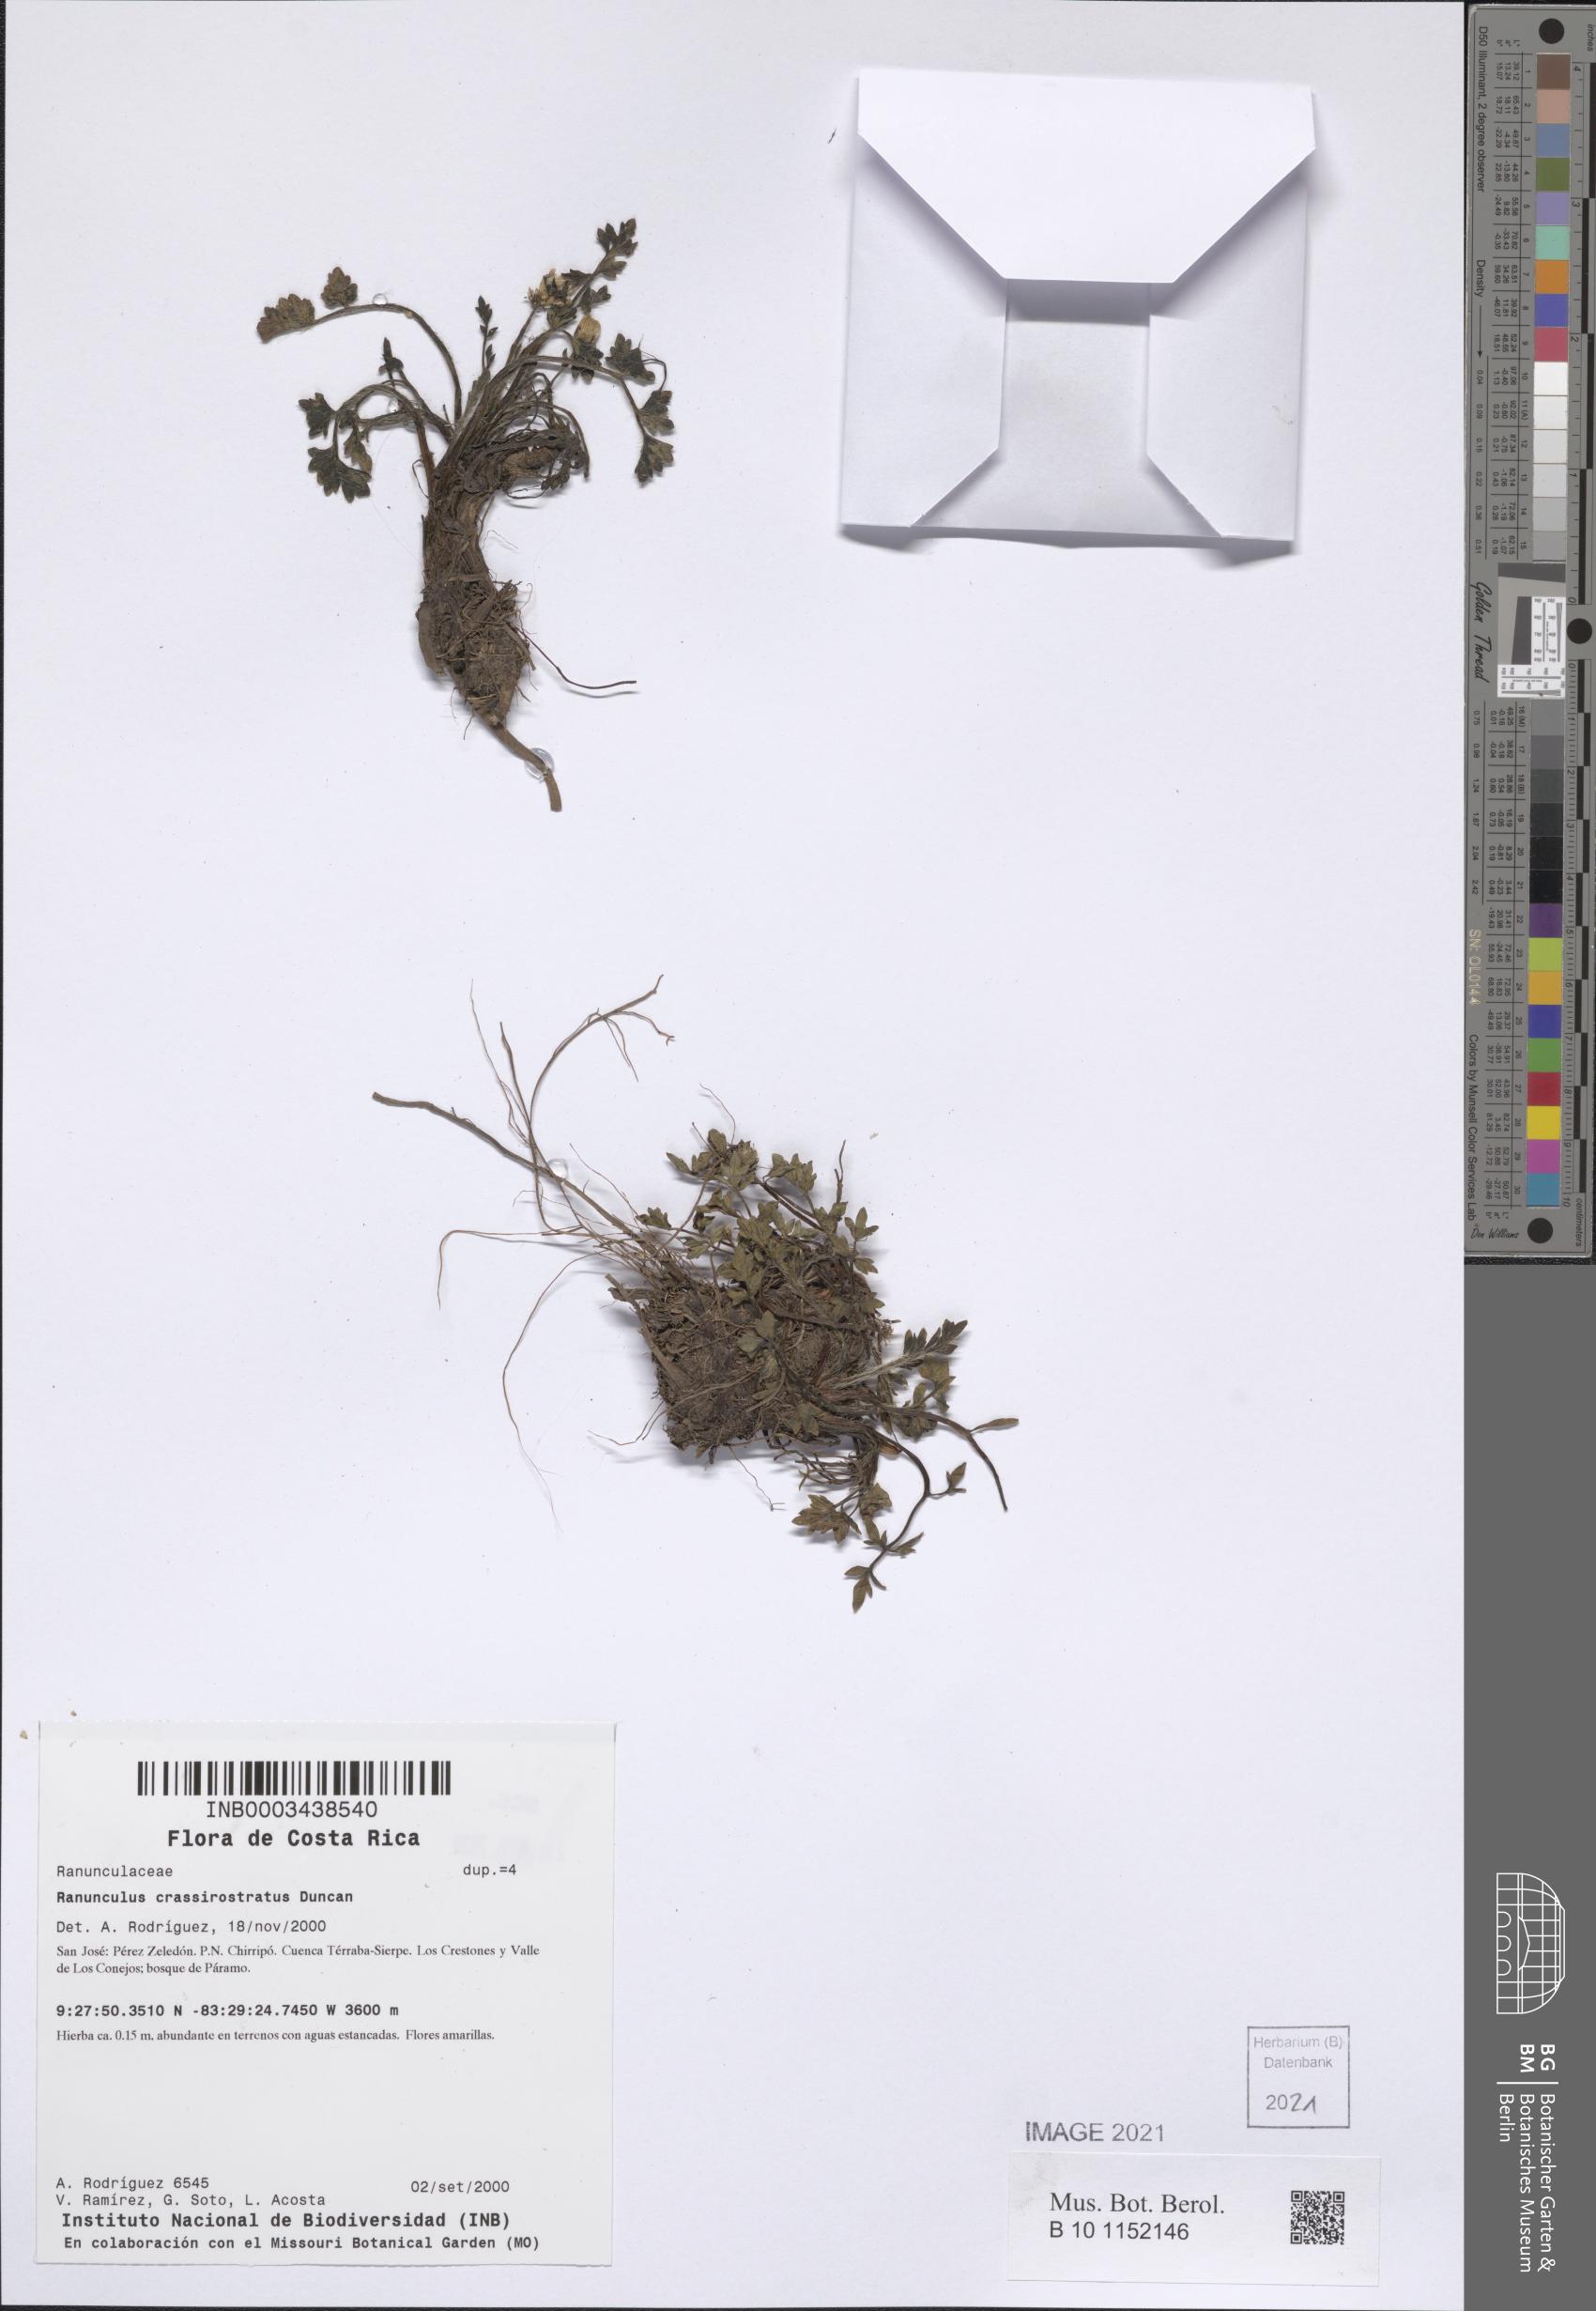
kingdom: Plantae
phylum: Tracheophyta
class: Magnoliopsida
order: Ranunculales
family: Ranunculaceae
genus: Ranunculus
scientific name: Ranunculus multicaulis
